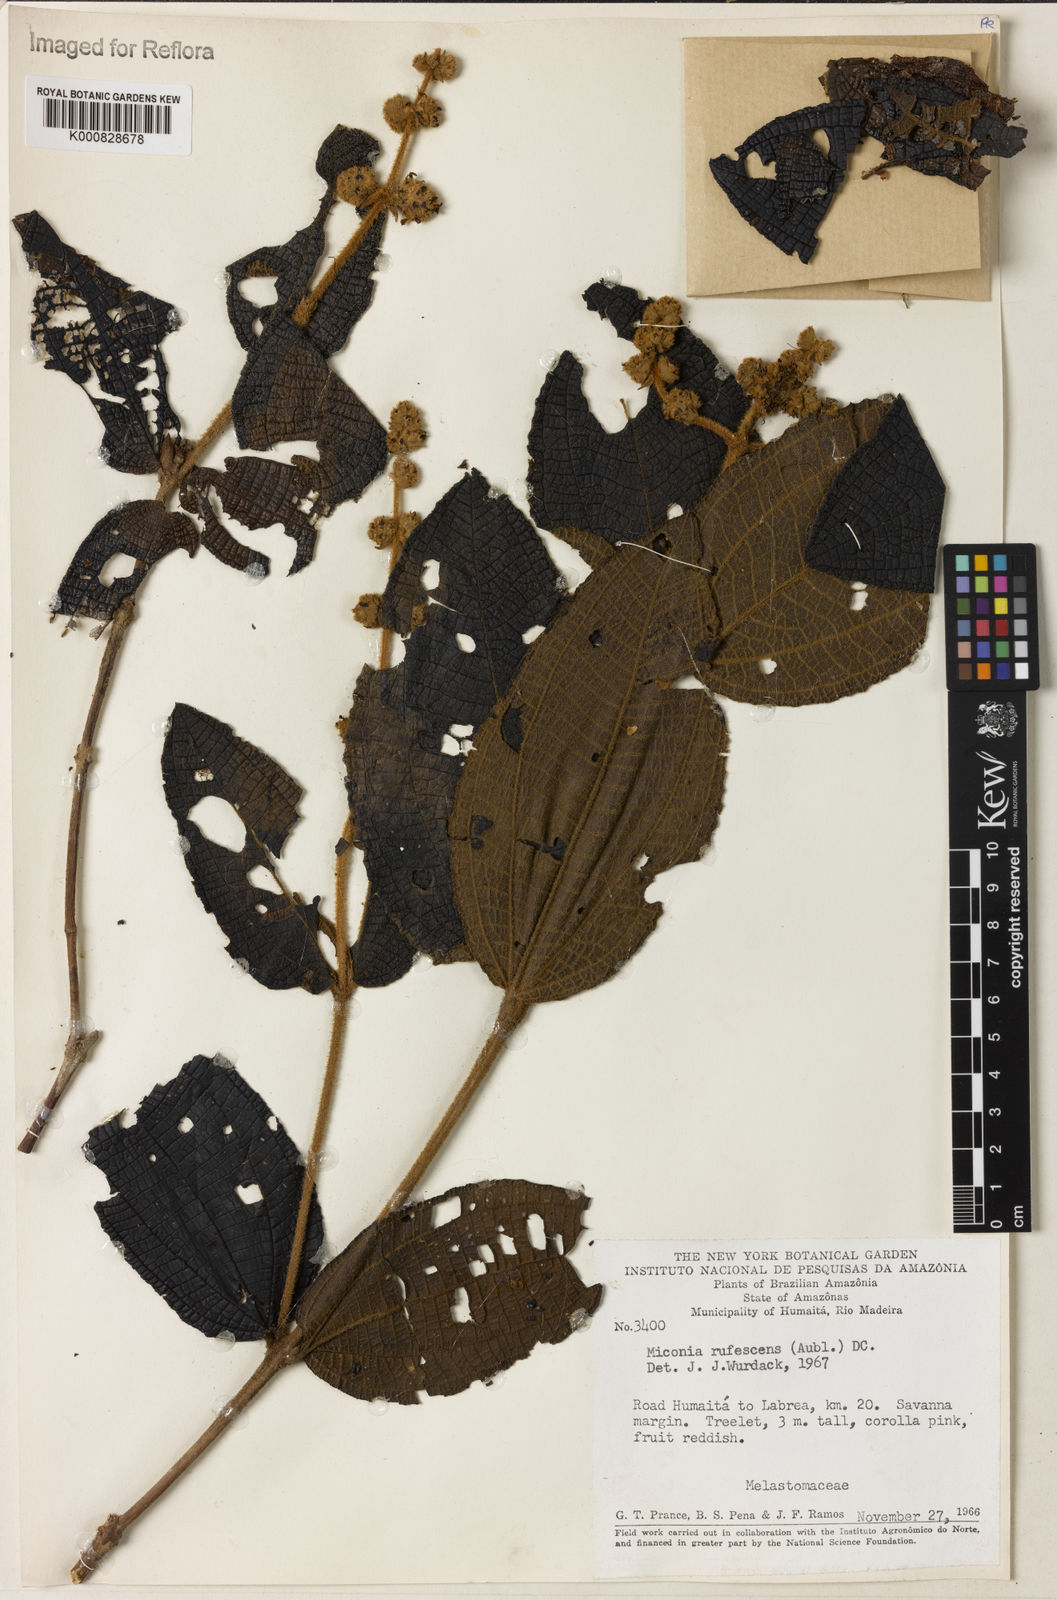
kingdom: Plantae
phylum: Tracheophyta
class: Magnoliopsida
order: Myrtales
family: Melastomataceae
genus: Miconia
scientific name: Miconia rufescens
